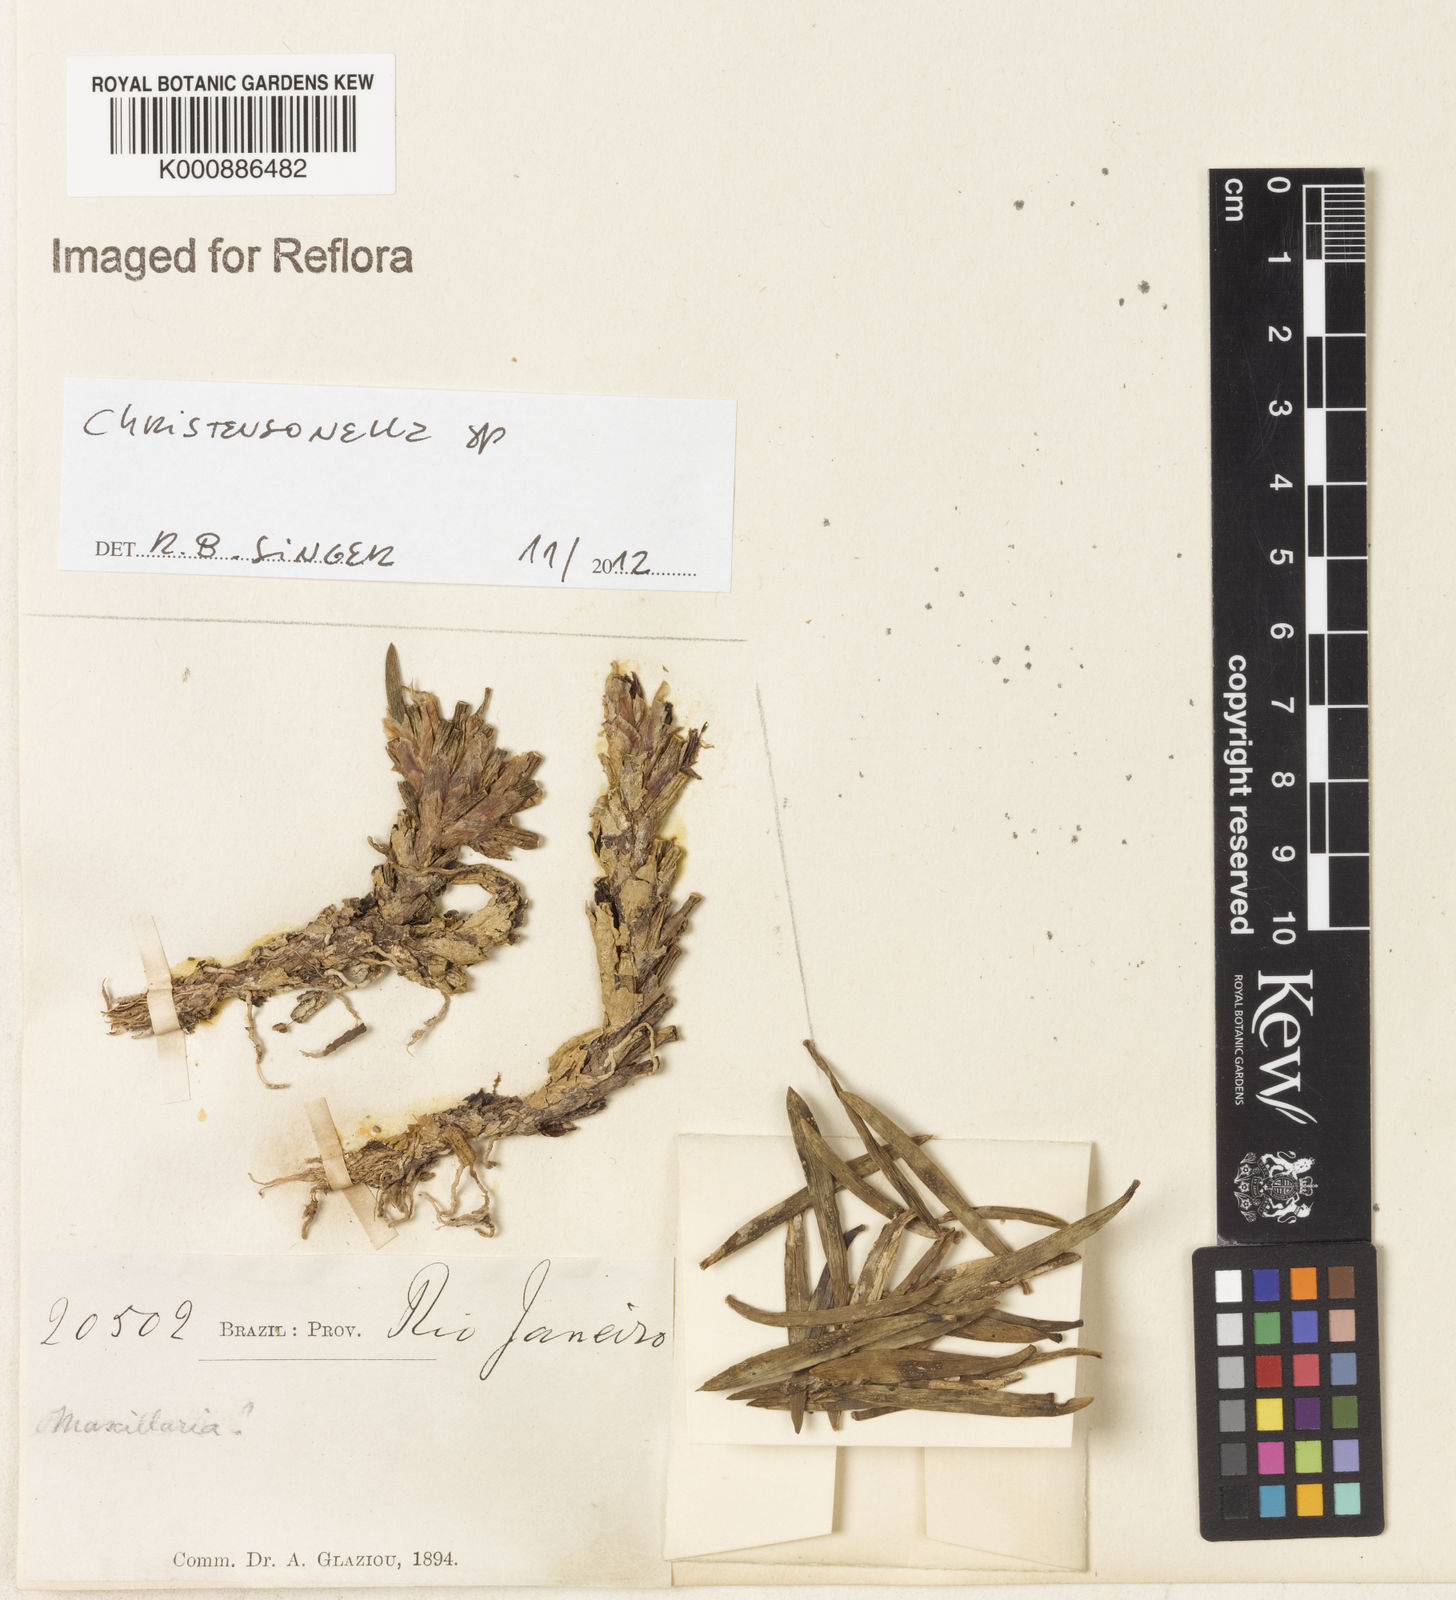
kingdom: Plantae
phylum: Tracheophyta
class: Liliopsida
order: Asparagales
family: Orchidaceae
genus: Maxillaria
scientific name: Maxillaria
